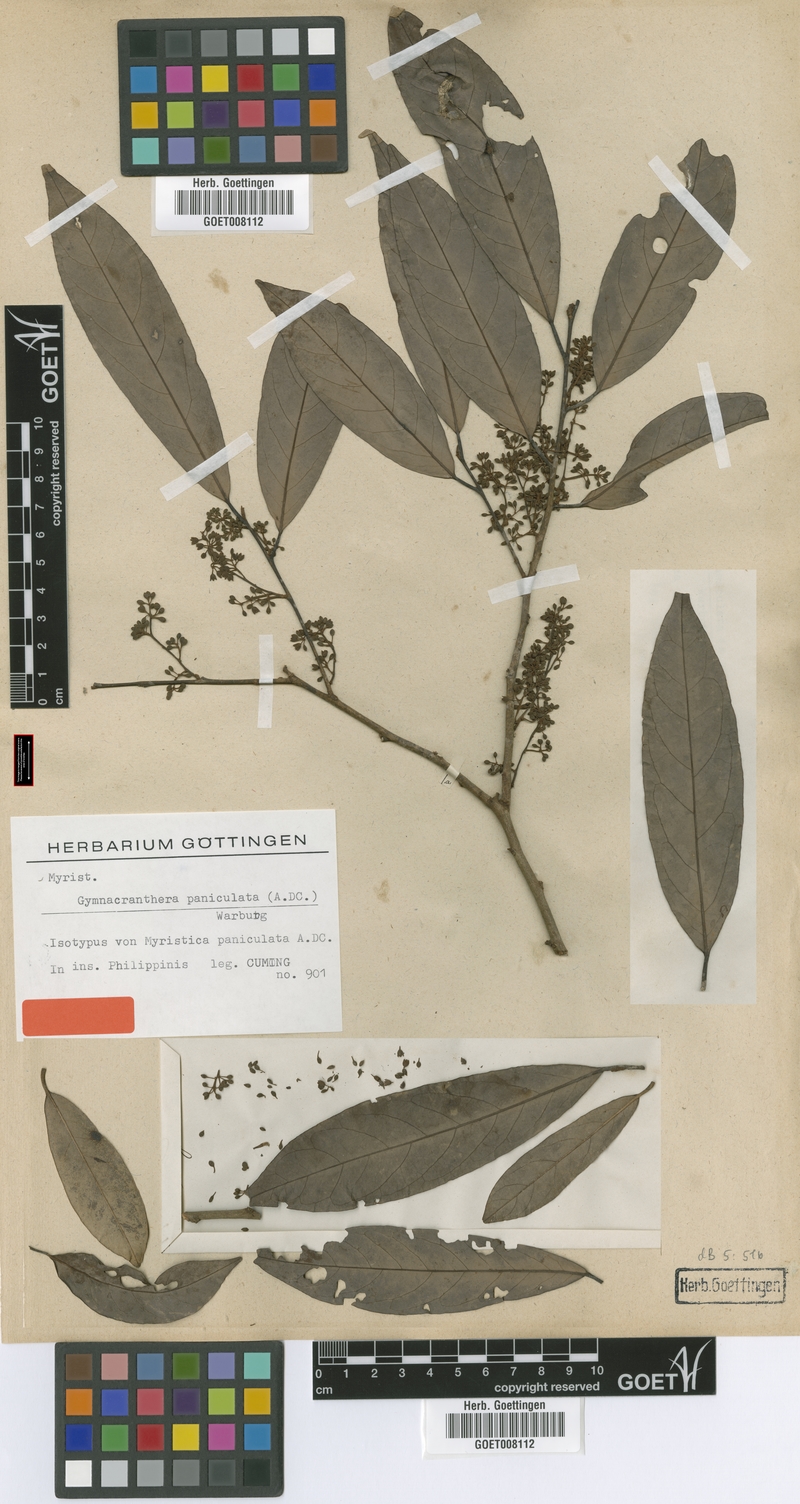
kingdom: Plantae
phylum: Tracheophyta
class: Magnoliopsida
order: Magnoliales
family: Myristicaceae
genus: Gymnacranthera
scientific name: Gymnacranthera farquhariana
